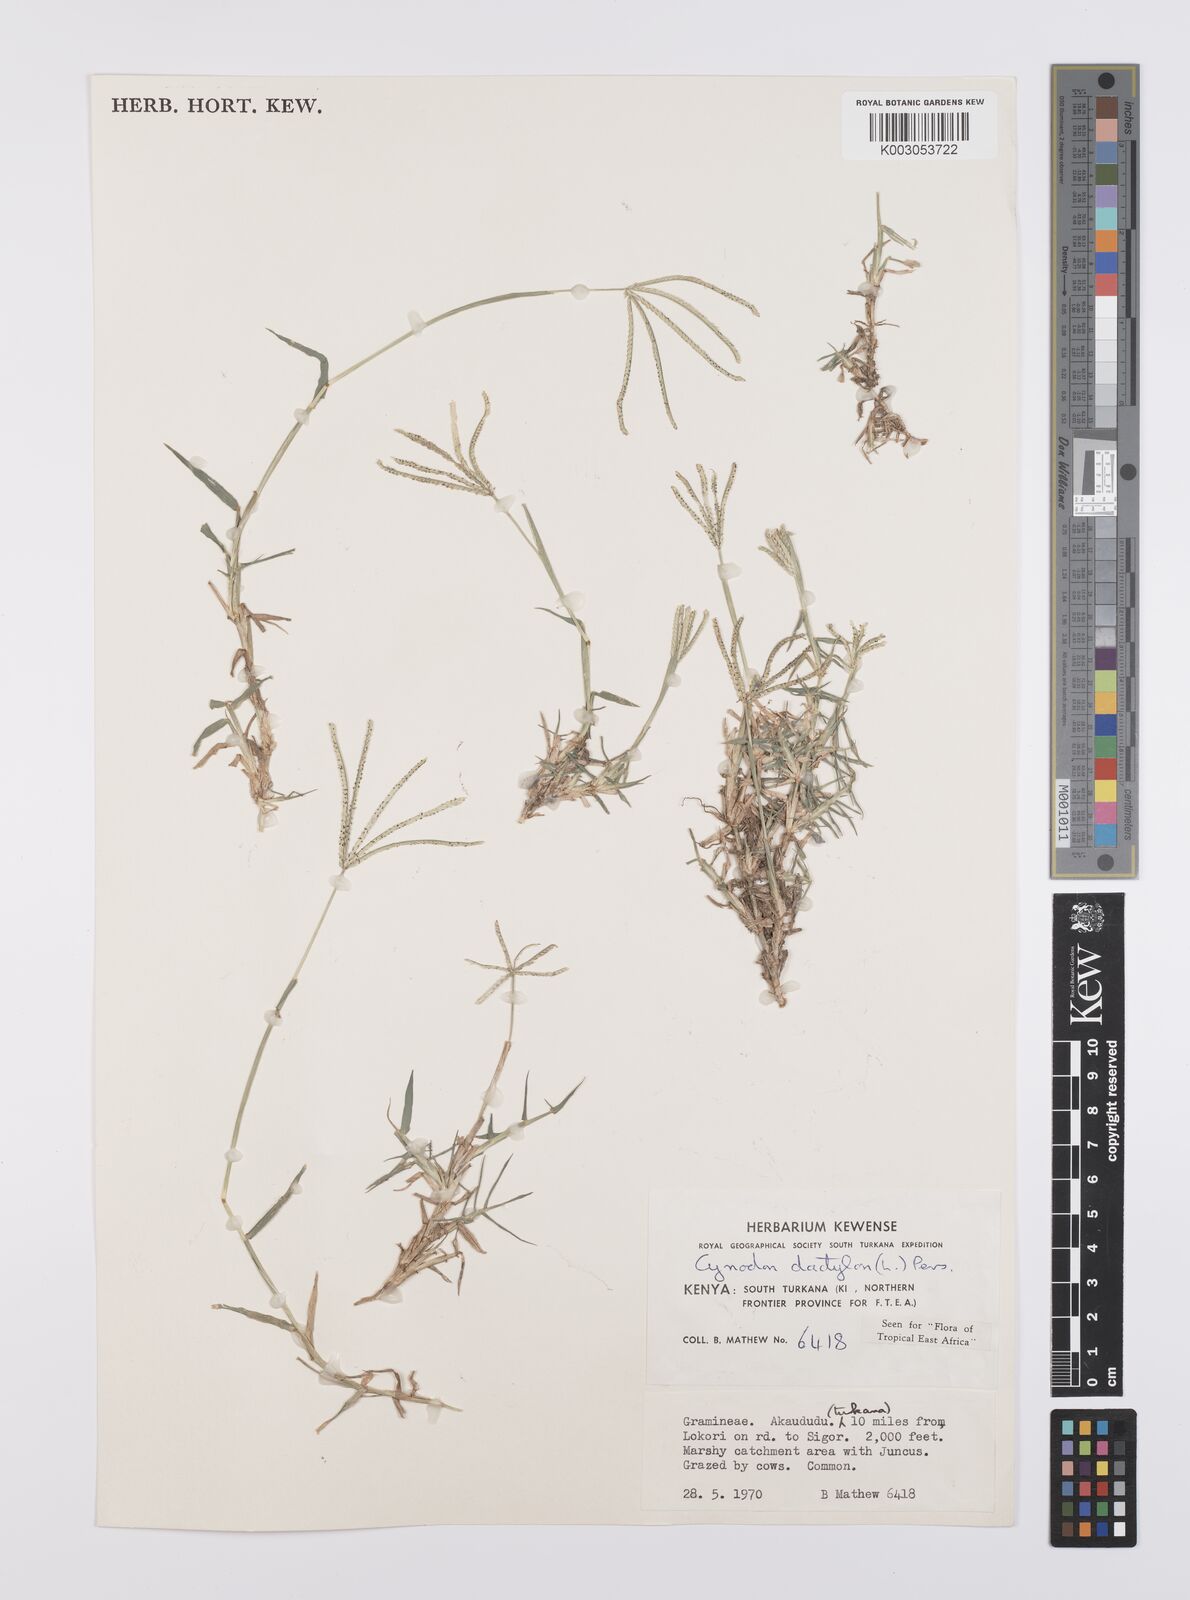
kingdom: Plantae
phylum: Tracheophyta
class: Liliopsida
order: Poales
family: Poaceae
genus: Cynodon
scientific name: Cynodon dactylon
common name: Bermuda grass
